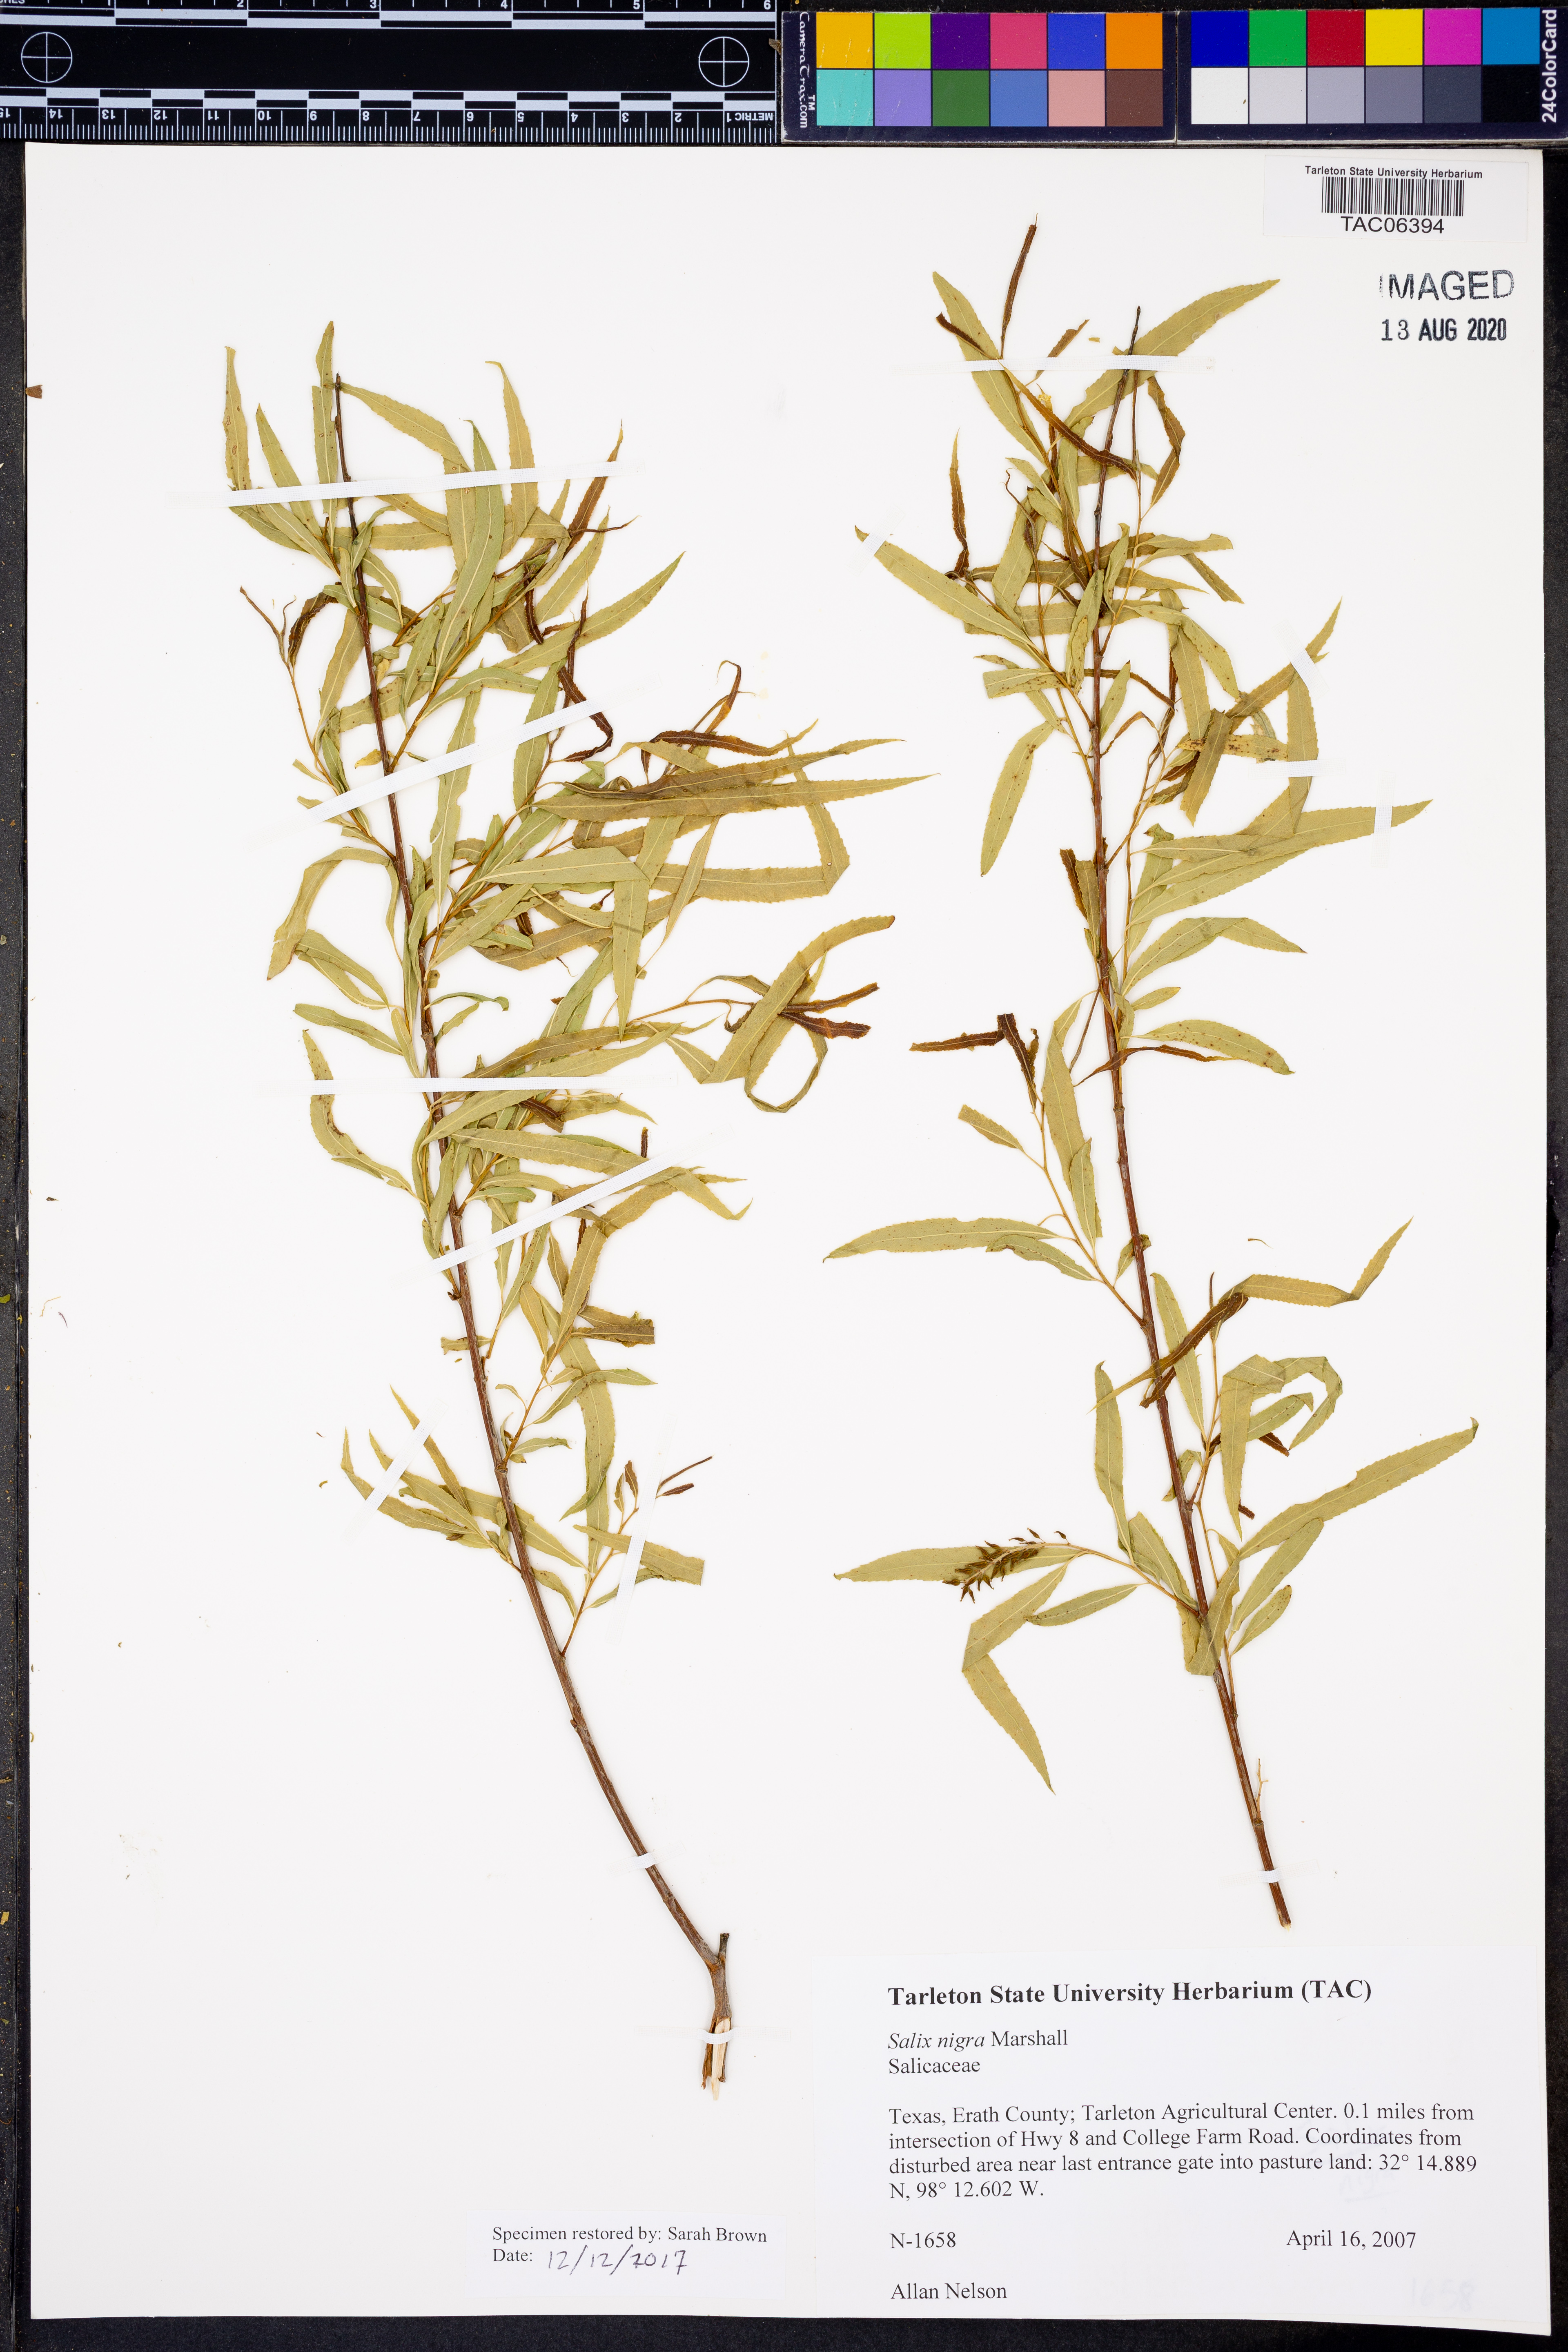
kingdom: Plantae
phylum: Tracheophyta
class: Magnoliopsida
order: Malpighiales
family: Salicaceae
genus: Salix
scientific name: Salix nigra
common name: Black willow
